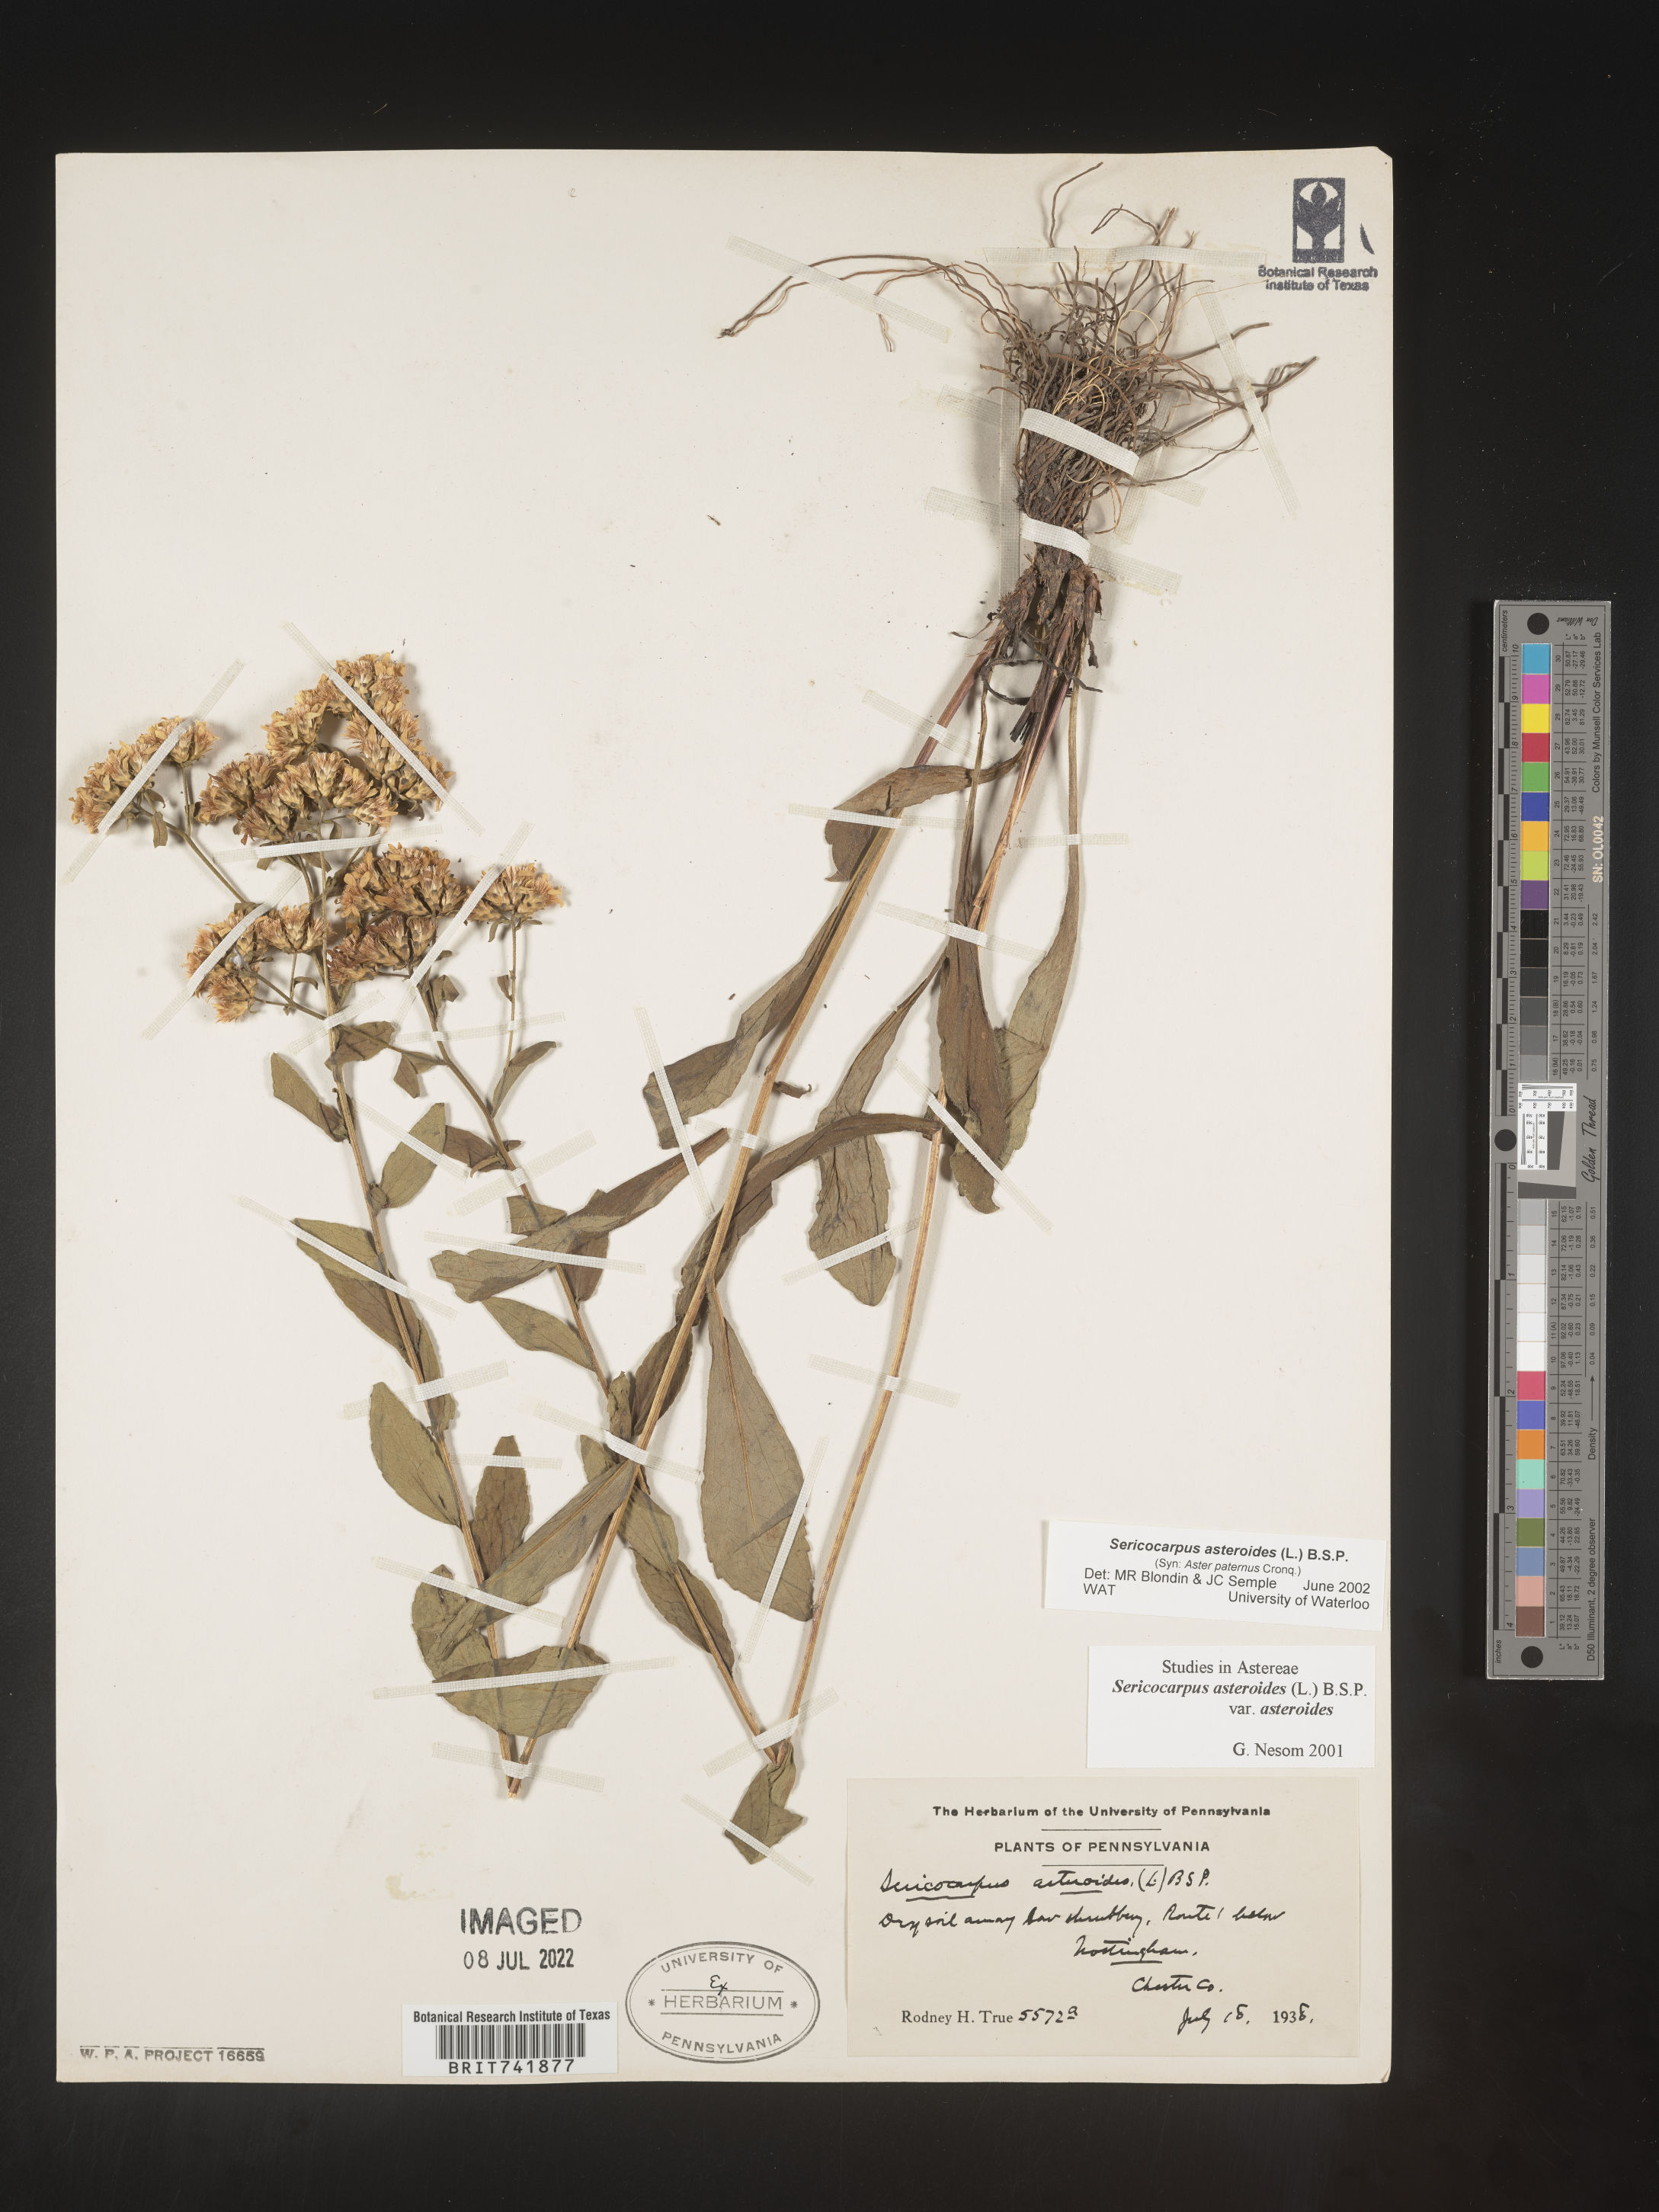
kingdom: Plantae
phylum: Tracheophyta
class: Magnoliopsida
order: Asterales
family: Asteraceae
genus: Sericocarpus
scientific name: Sericocarpus asteroides
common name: Toothed white-top aster
